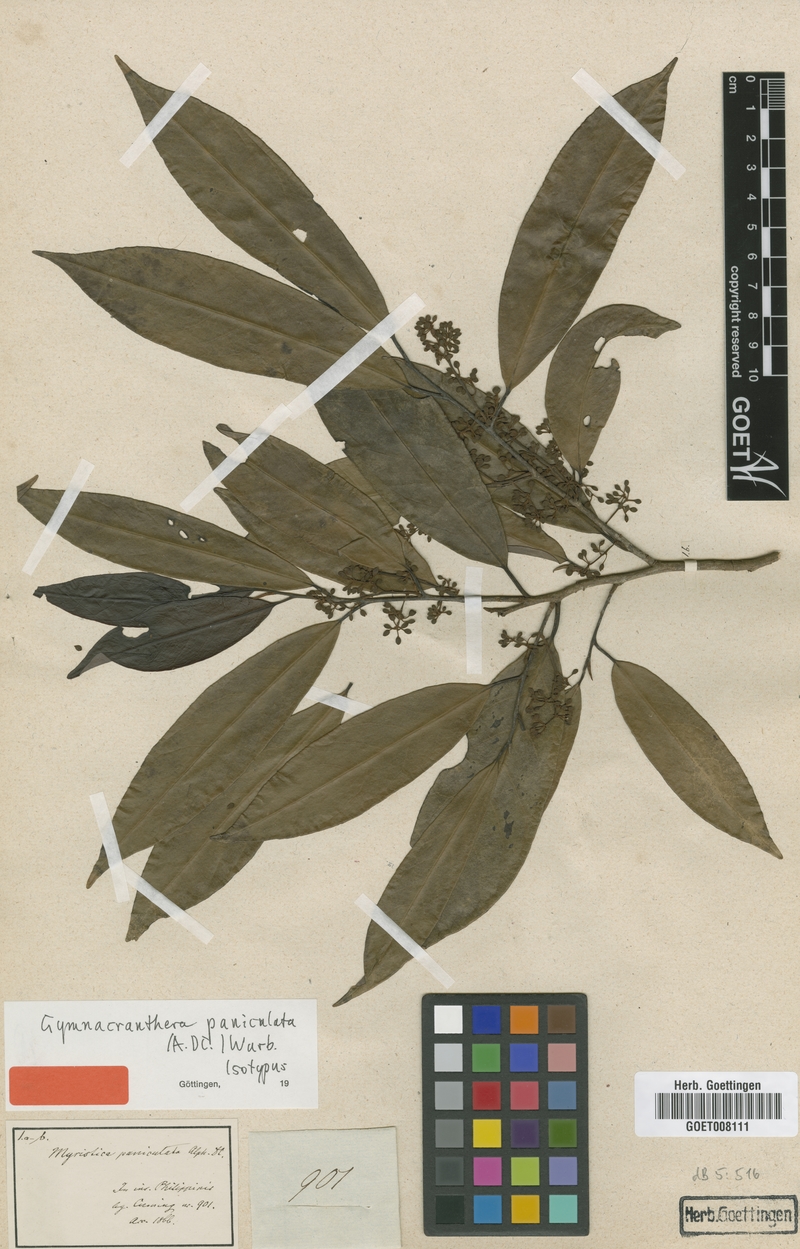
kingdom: Plantae
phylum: Tracheophyta
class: Magnoliopsida
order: Magnoliales
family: Myristicaceae
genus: Gymnacranthera
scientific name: Gymnacranthera farquhariana
